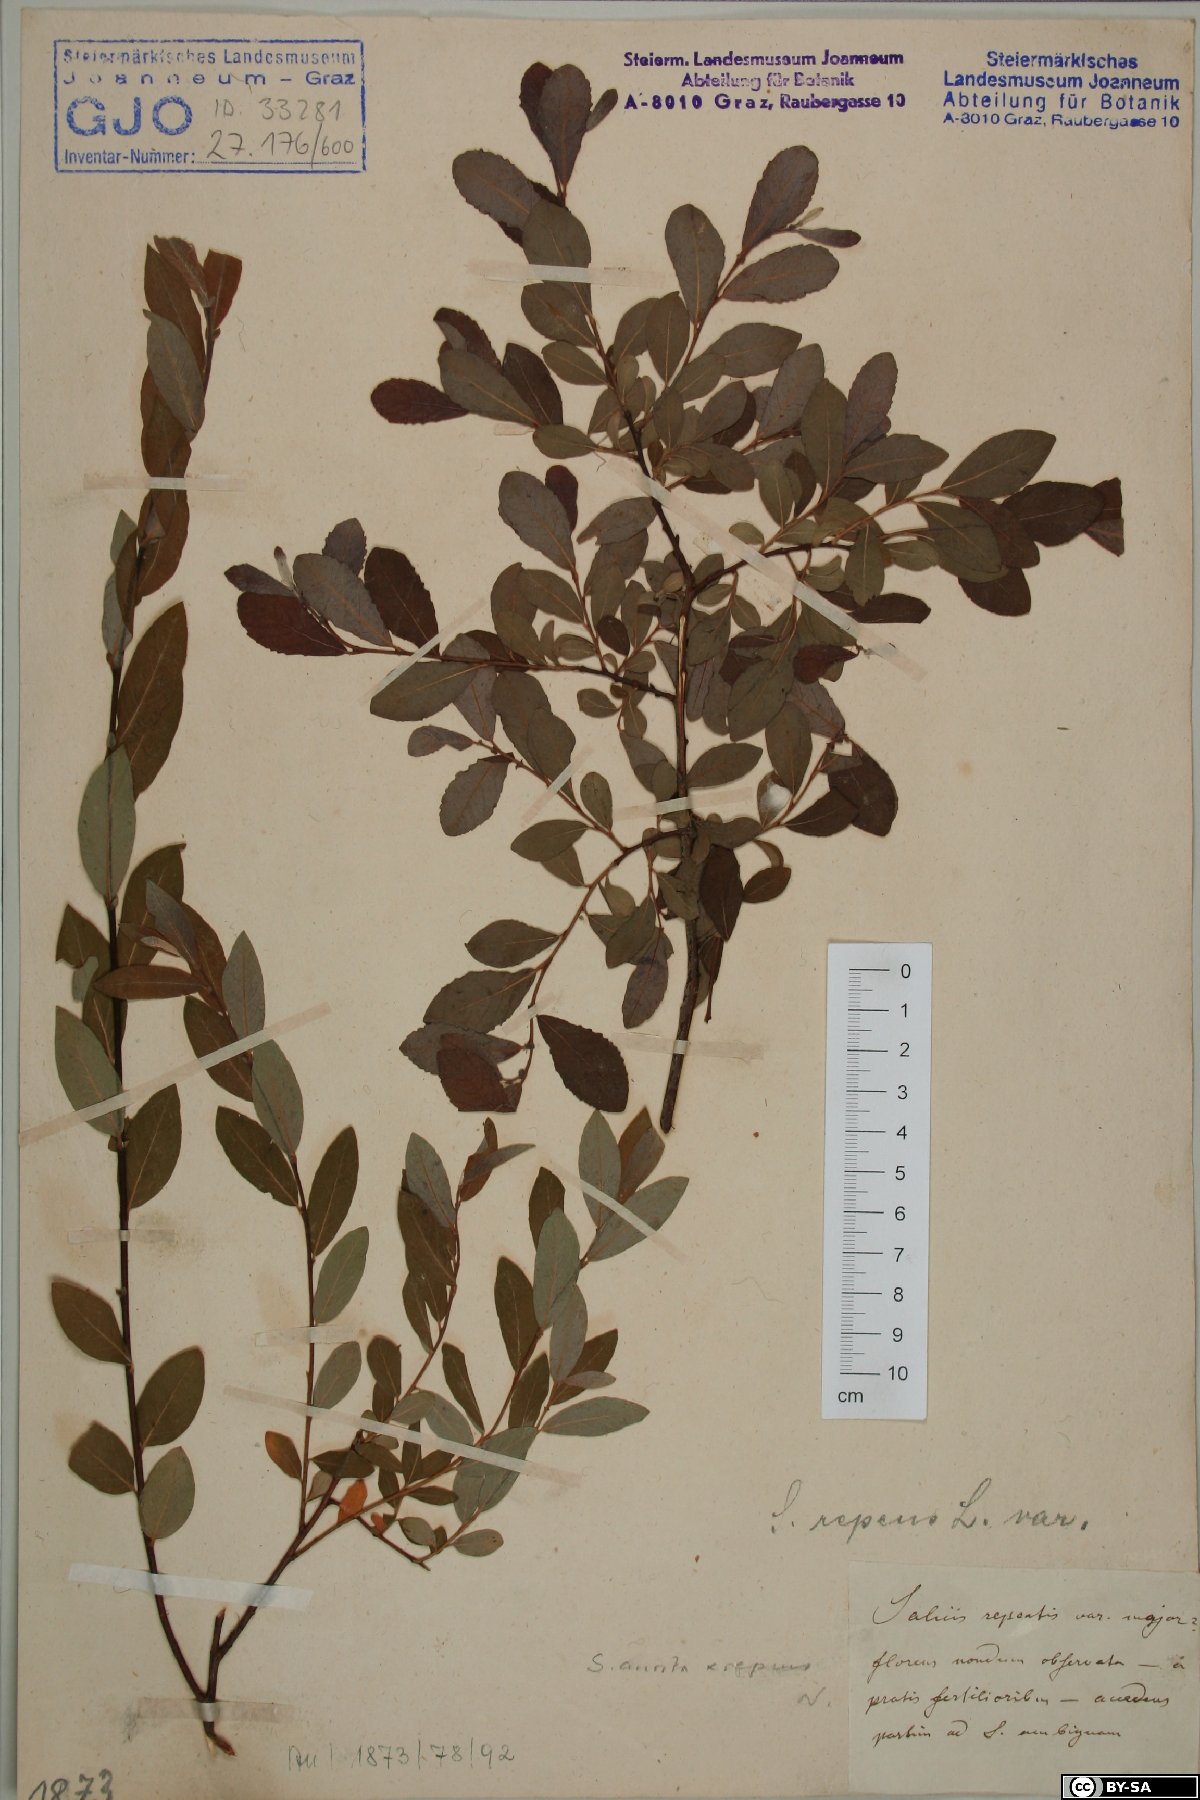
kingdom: Plantae
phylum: Tracheophyta
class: Magnoliopsida
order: Malpighiales
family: Salicaceae
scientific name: Salicaceae
